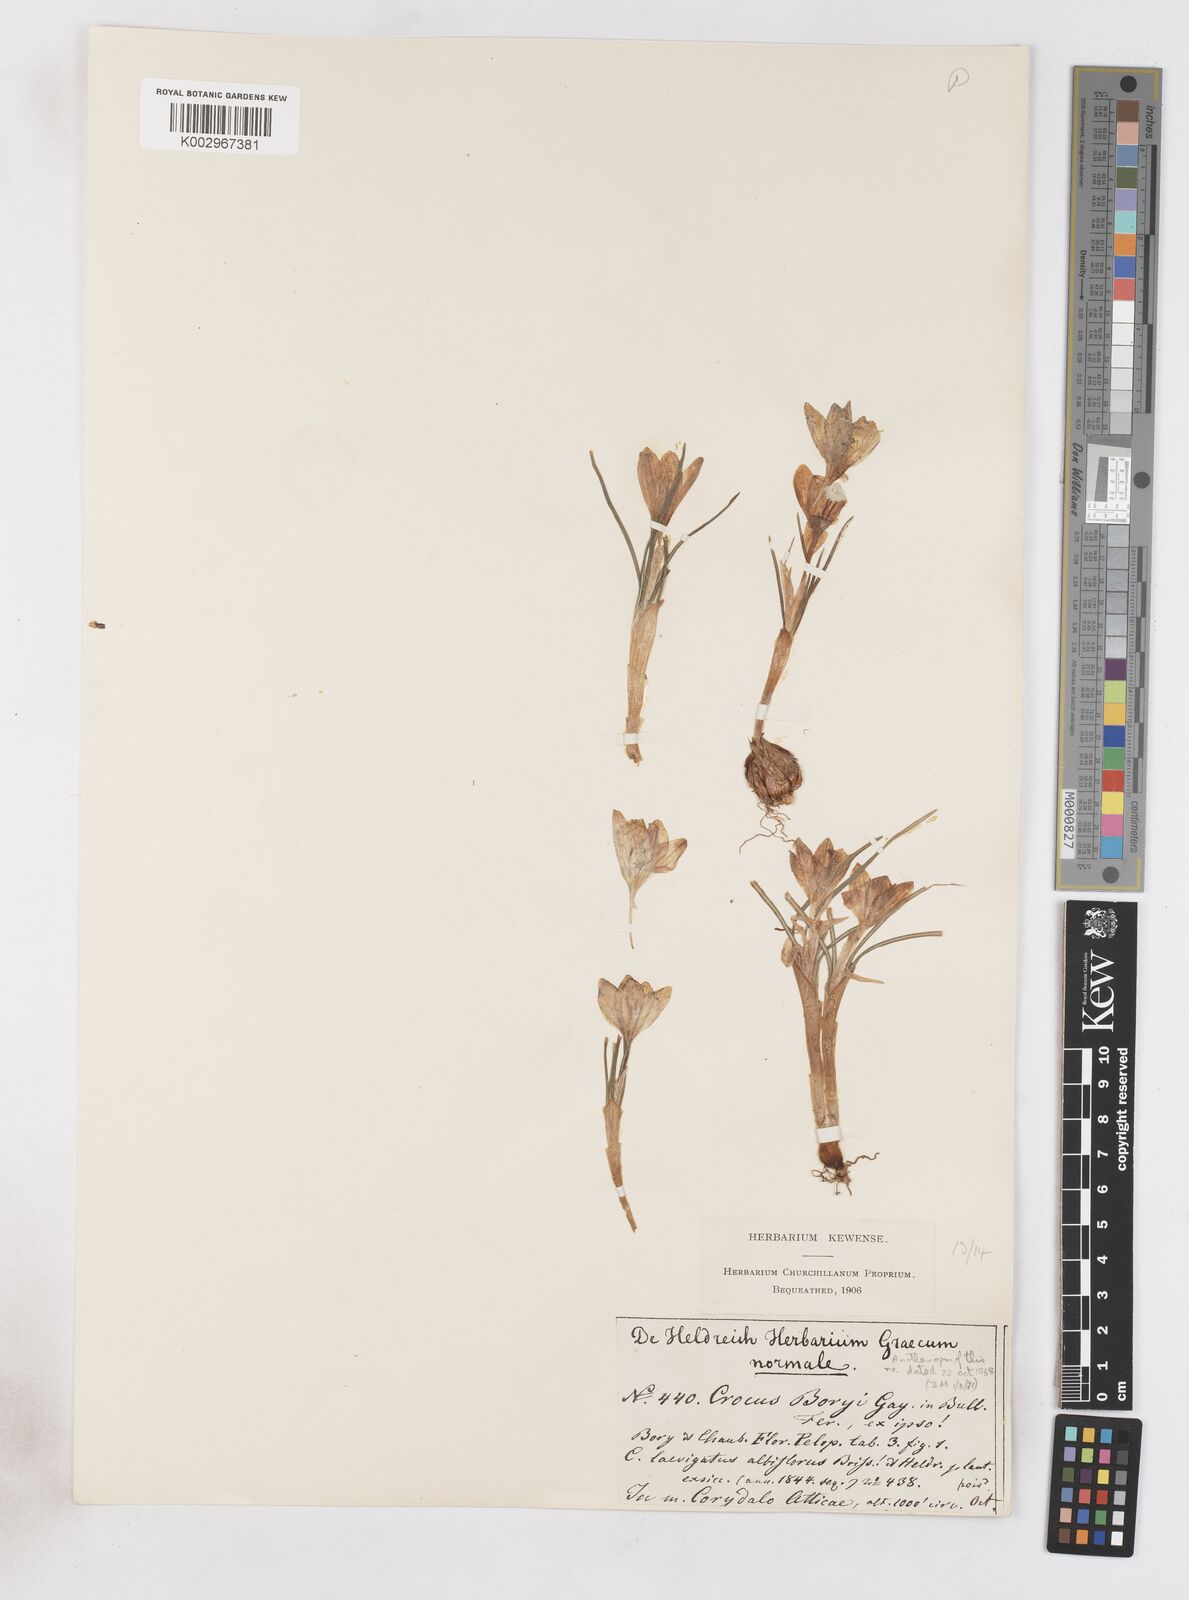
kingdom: Plantae
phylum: Tracheophyta
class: Liliopsida
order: Asparagales
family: Iridaceae
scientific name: Iridaceae
